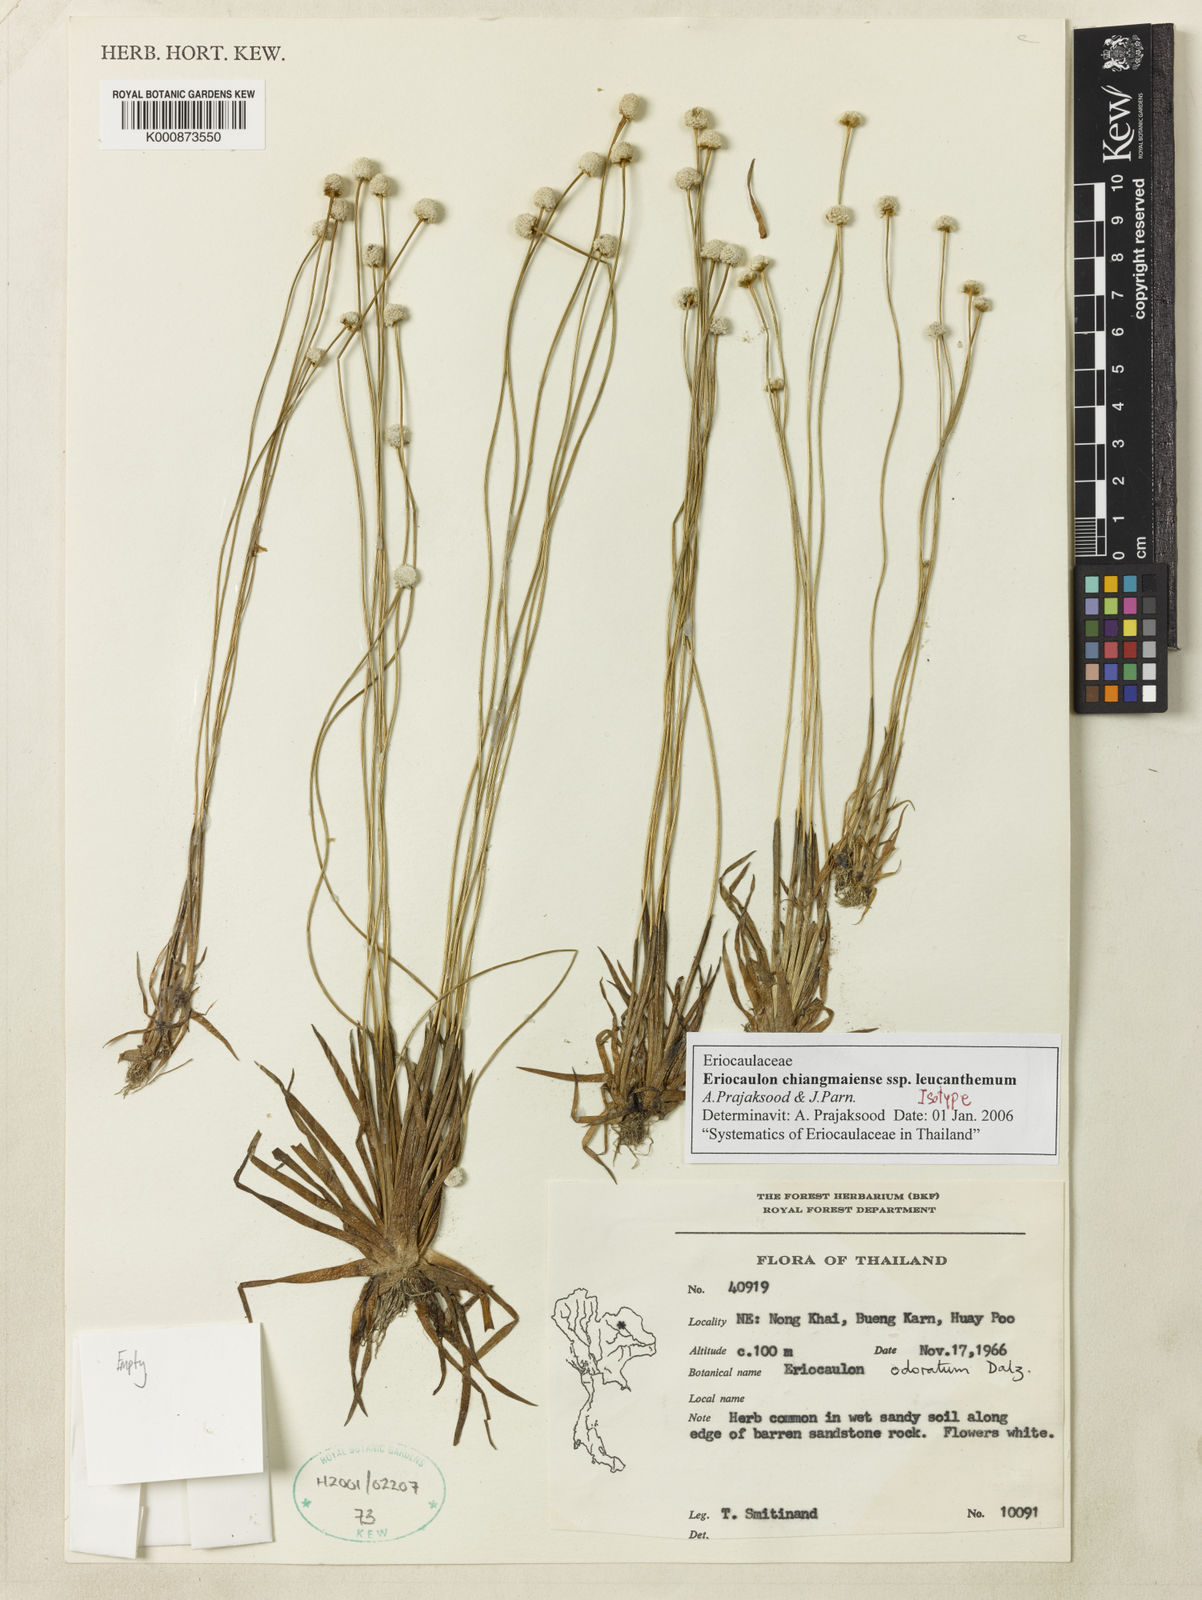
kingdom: Plantae
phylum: Tracheophyta
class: Liliopsida
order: Poales
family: Eriocaulaceae
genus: Eriocaulon
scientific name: Eriocaulon chiangmaiense
